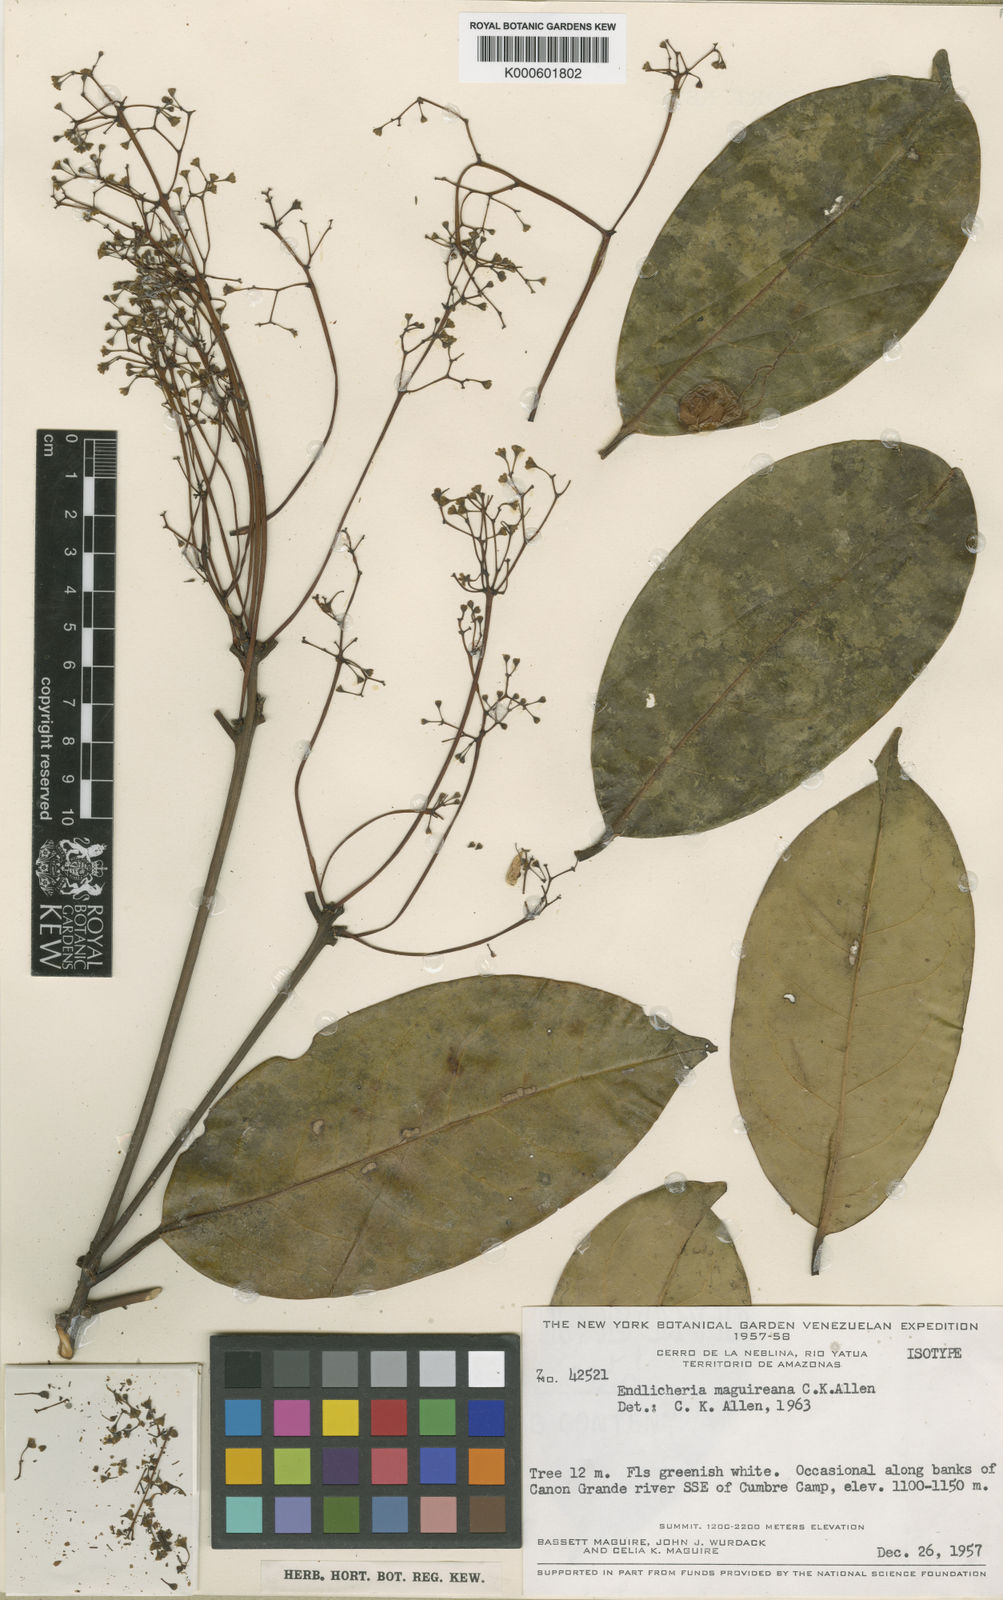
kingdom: Plantae
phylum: Tracheophyta
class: Magnoliopsida
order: Laurales
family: Lauraceae
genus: Ocotea
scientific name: Ocotea aciphylla
